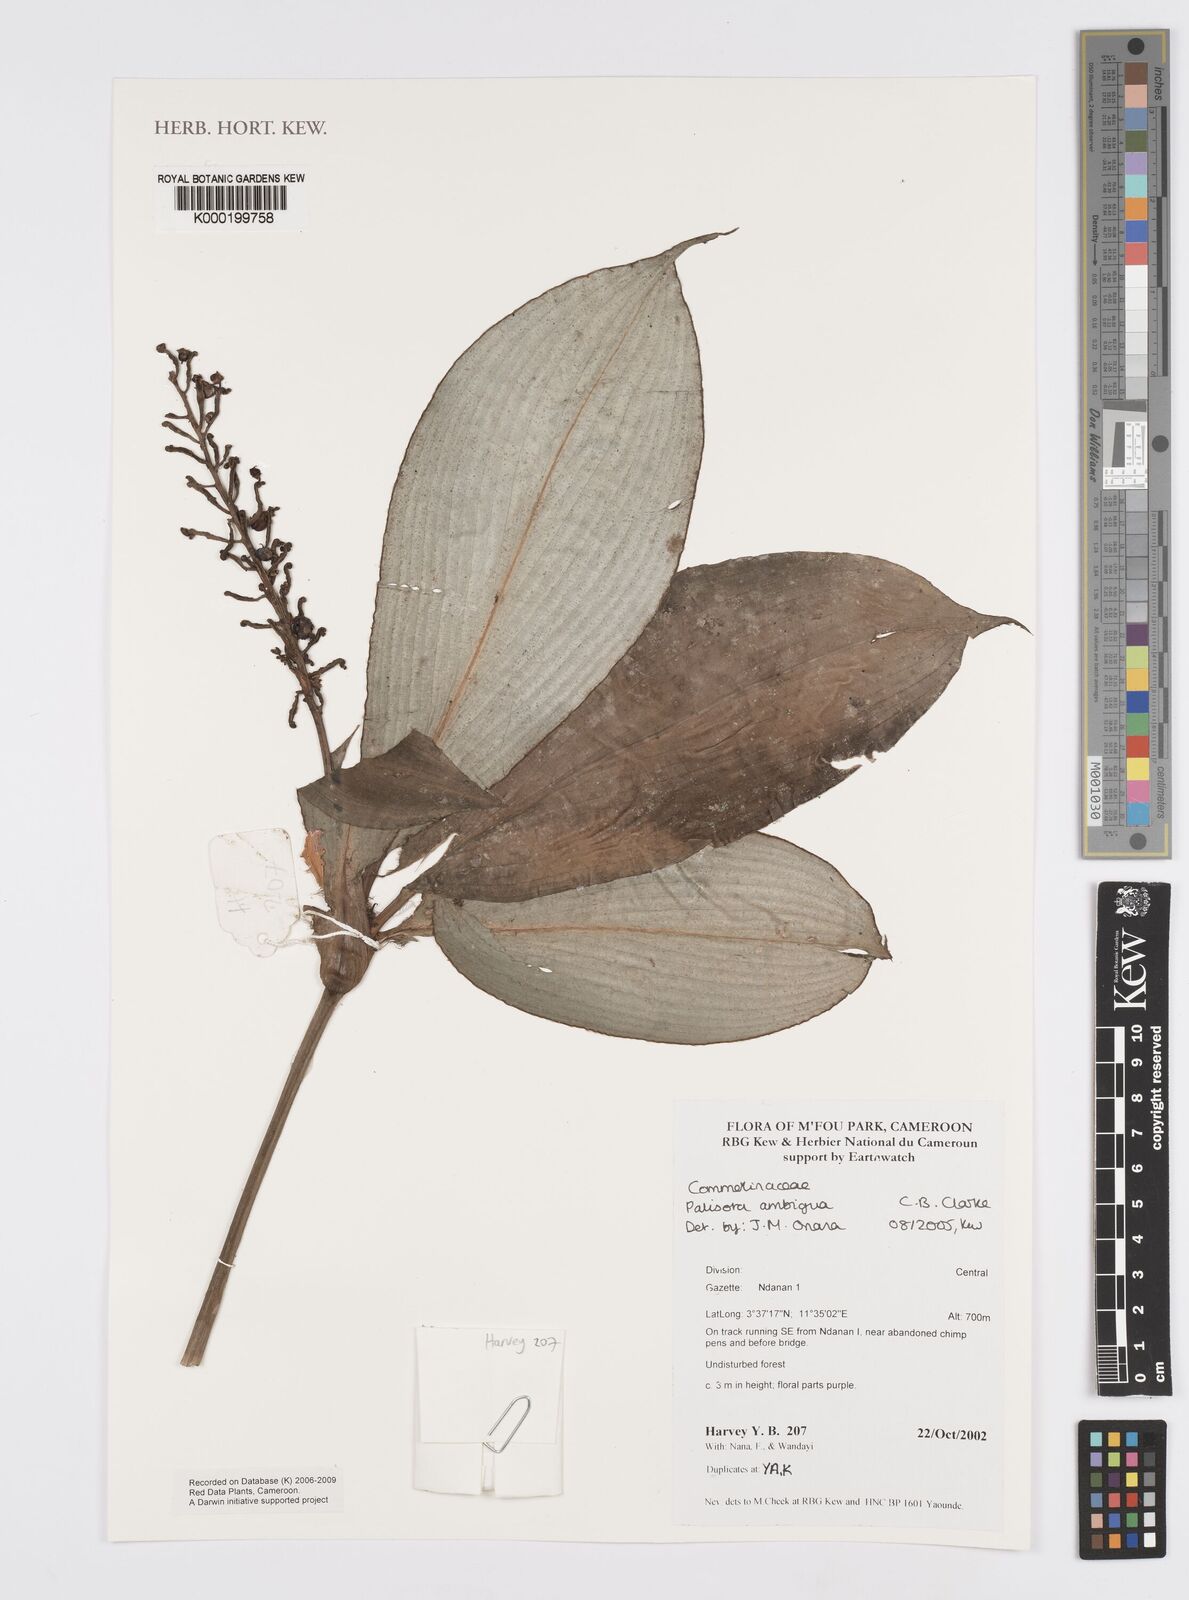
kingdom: Plantae
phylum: Tracheophyta
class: Liliopsida
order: Commelinales
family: Commelinaceae
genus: Palisota
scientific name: Palisota ambigua
